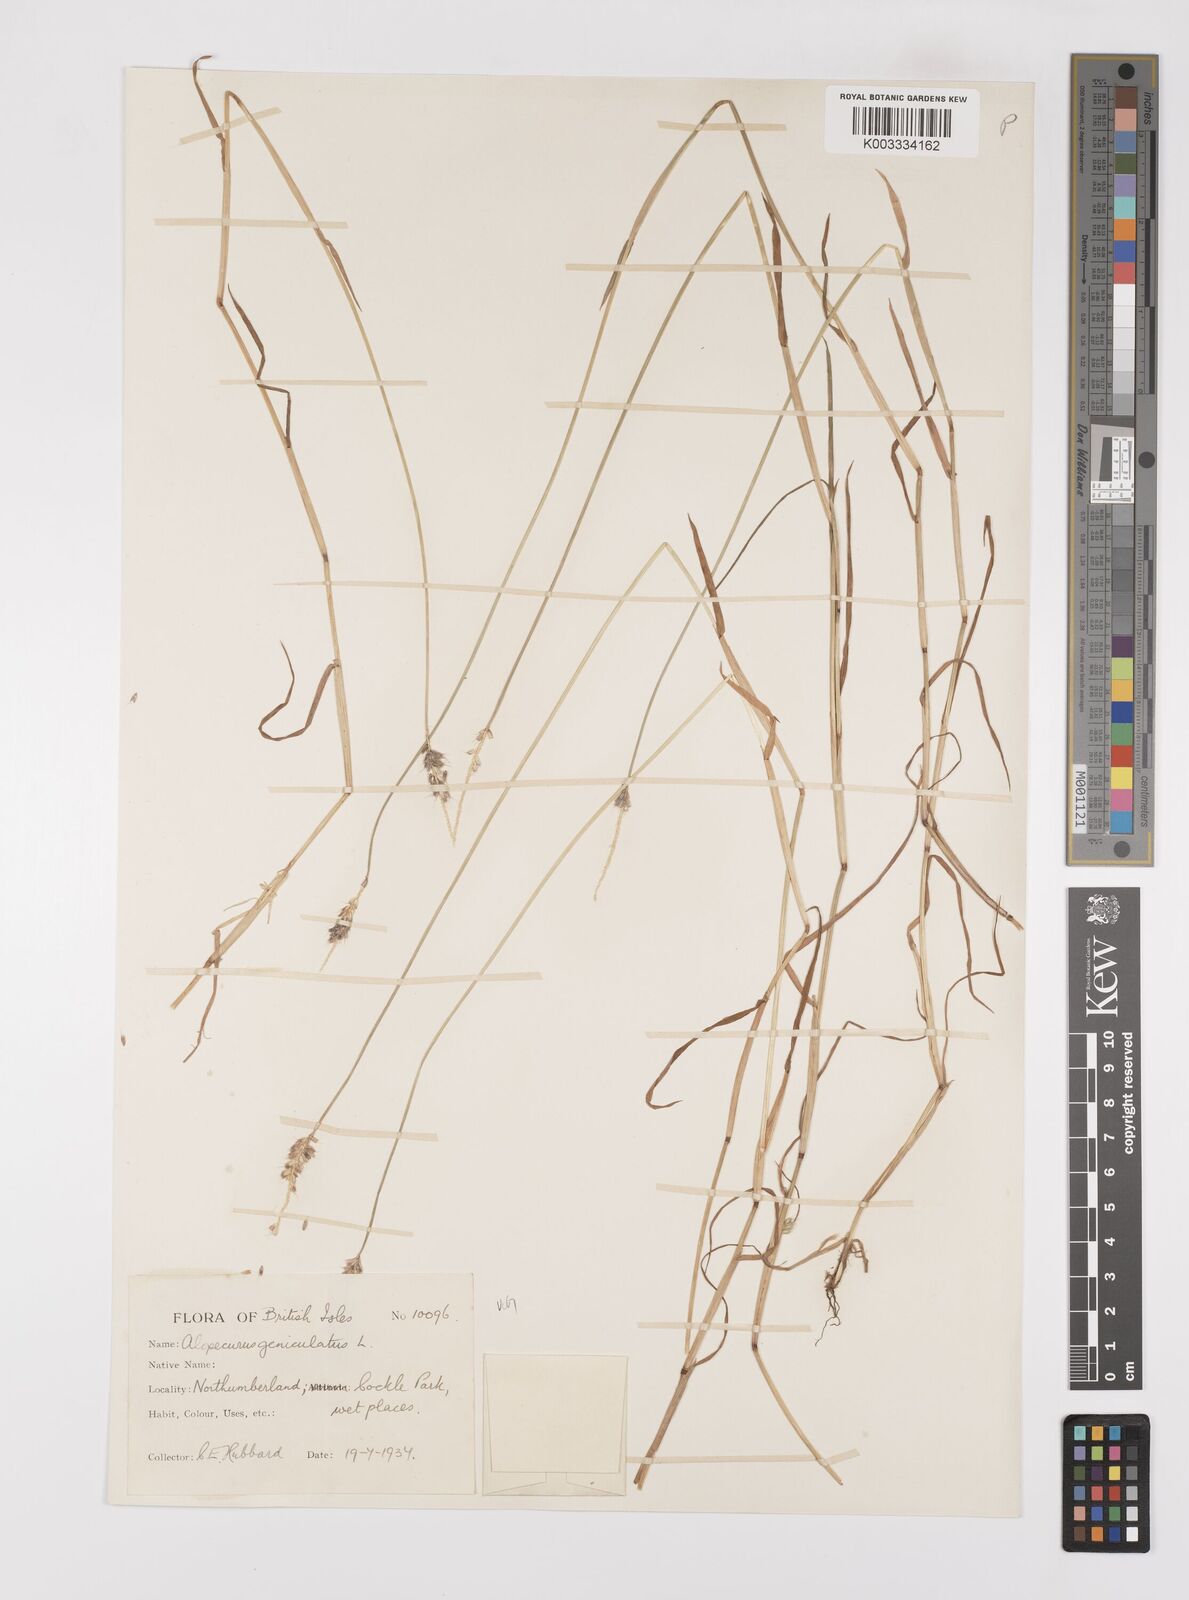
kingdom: Plantae
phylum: Tracheophyta
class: Liliopsida
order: Poales
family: Poaceae
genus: Alopecurus
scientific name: Alopecurus geniculatus
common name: Water foxtail
